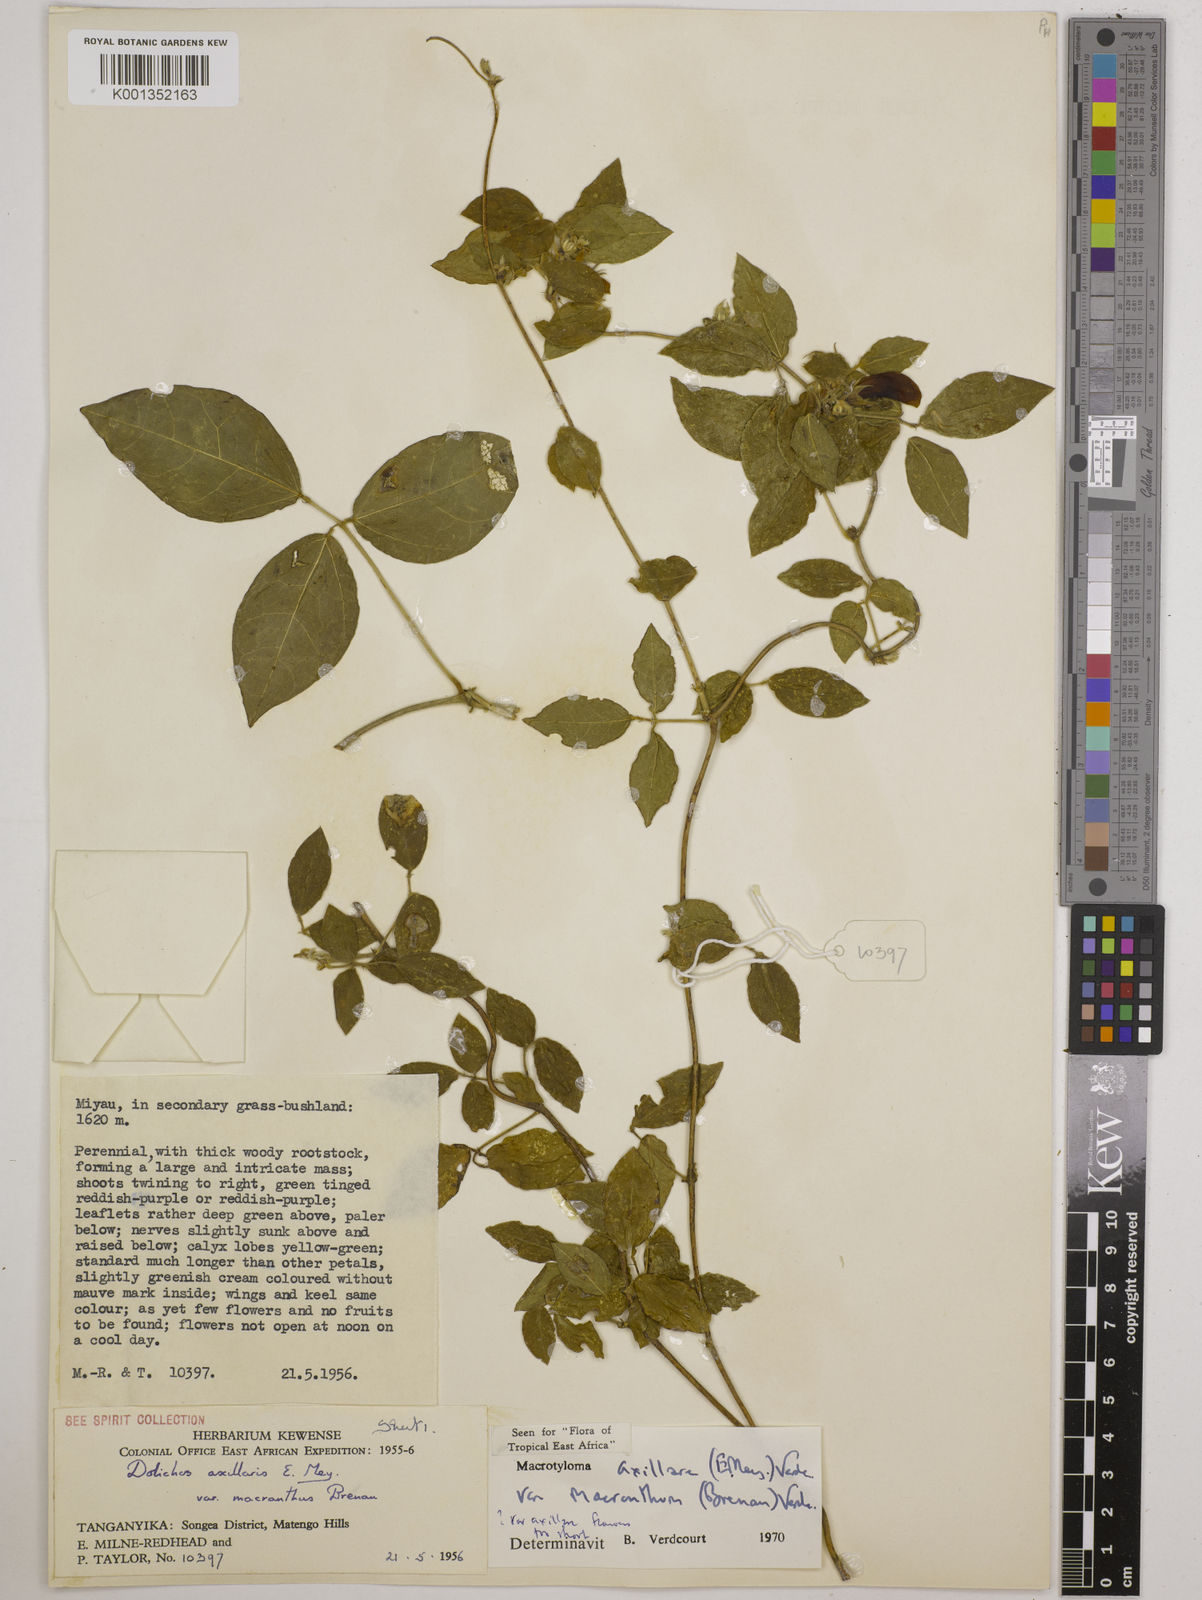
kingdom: Plantae
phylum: Tracheophyta
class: Magnoliopsida
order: Fabales
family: Fabaceae
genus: Macrotyloma
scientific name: Macrotyloma
